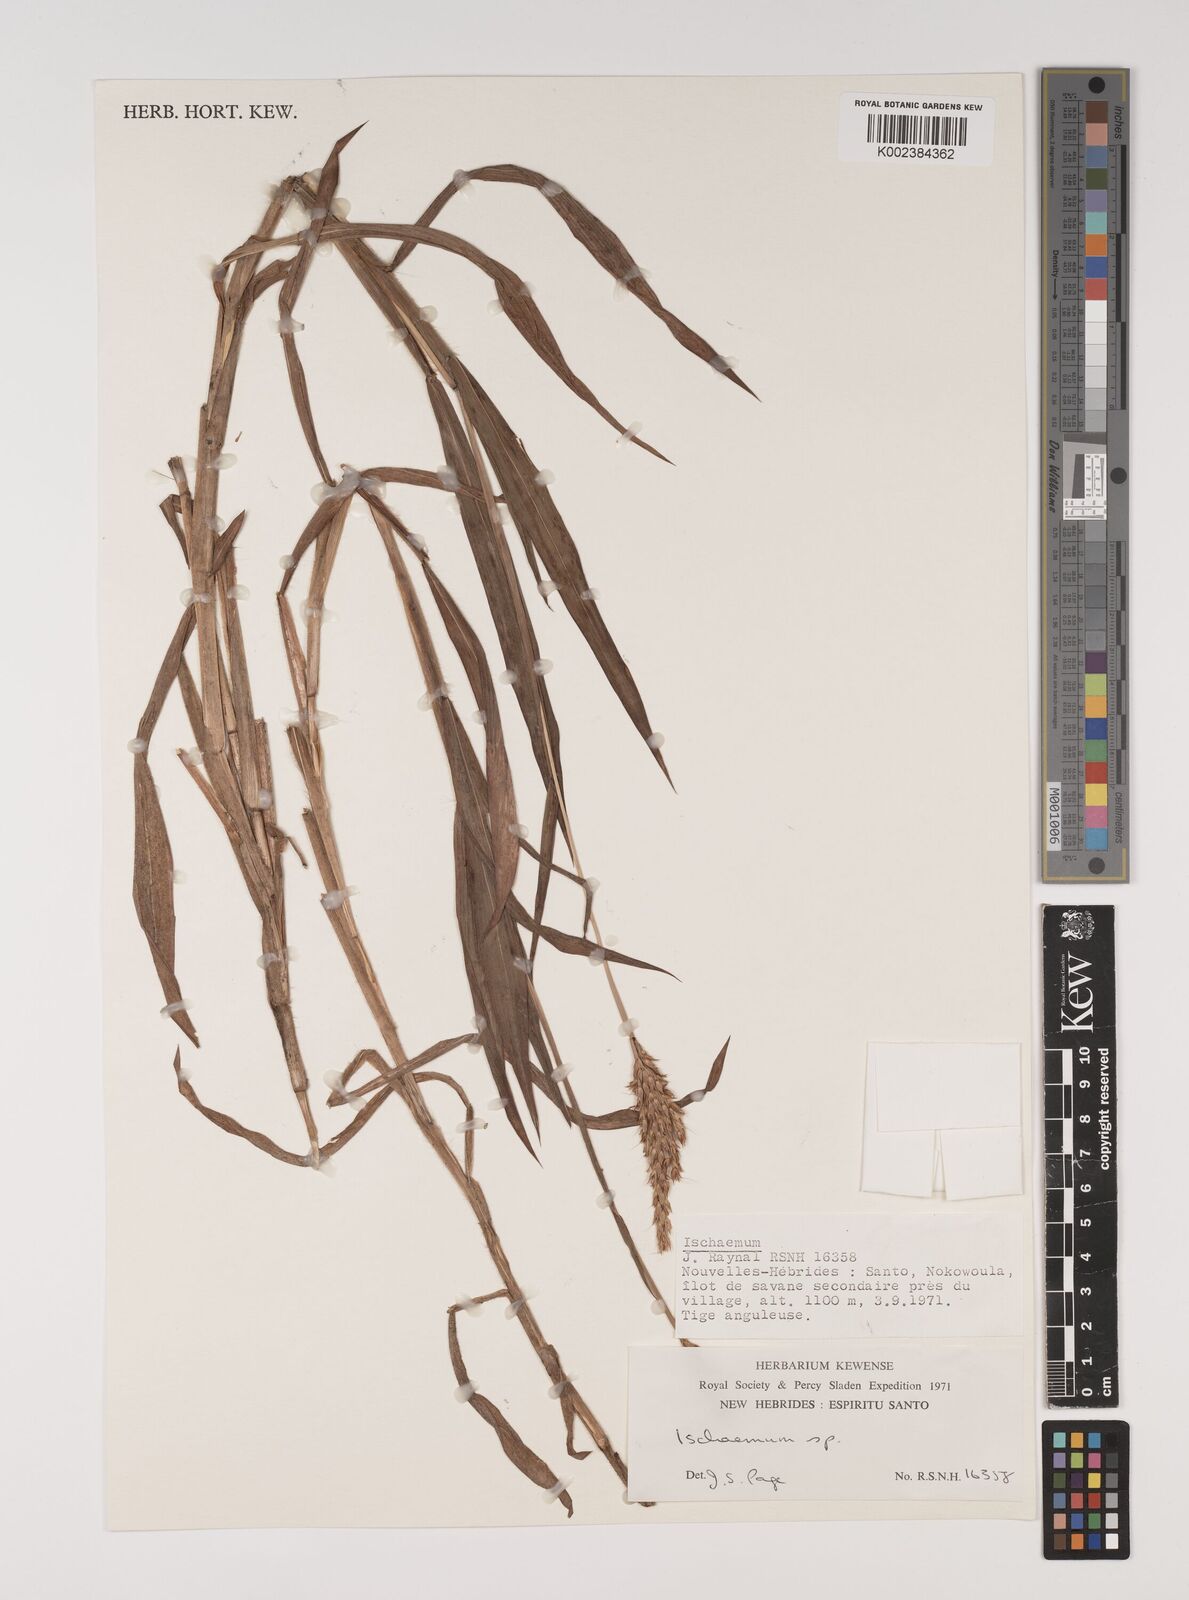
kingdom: Plantae
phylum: Tracheophyta
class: Liliopsida
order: Poales
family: Poaceae
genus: Ischaemum
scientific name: Ischaemum polystachyum
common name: Paddle grass
